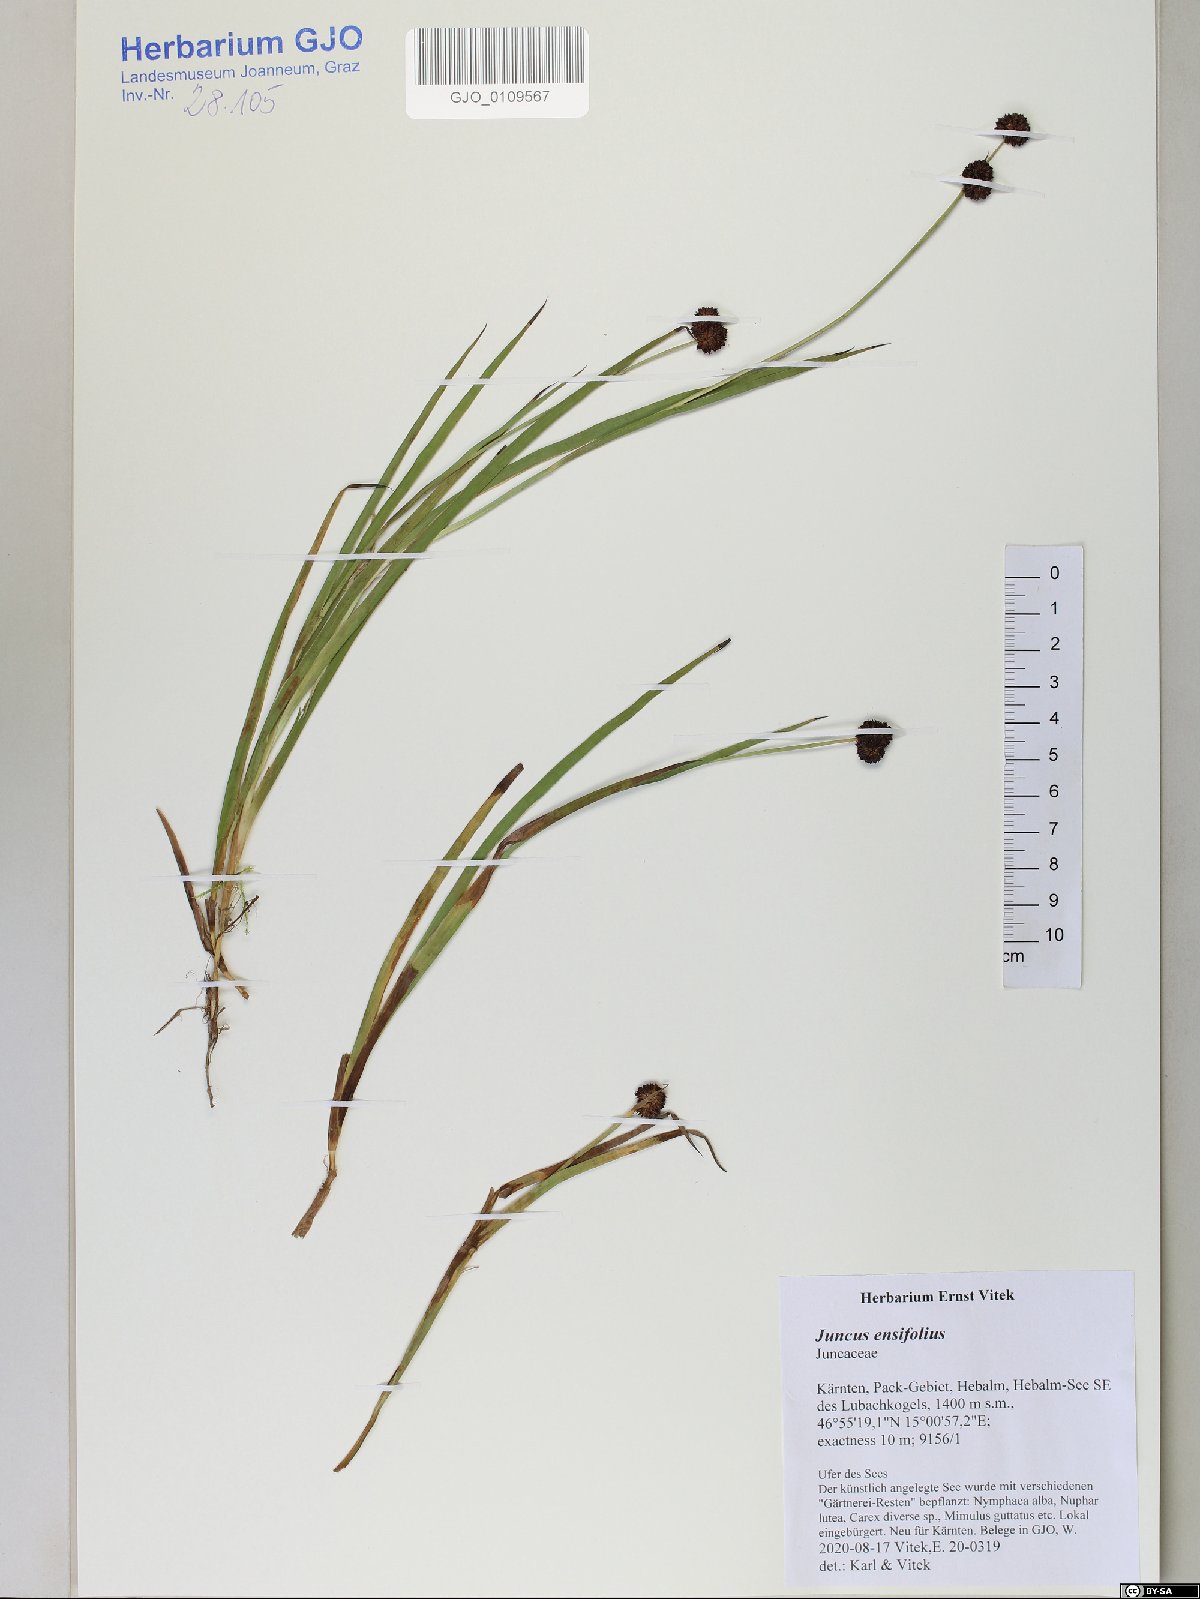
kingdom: Plantae
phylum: Tracheophyta
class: Liliopsida
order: Poales
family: Juncaceae
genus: Juncus
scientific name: Juncus ensifolius
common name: Sword-leaved rush
